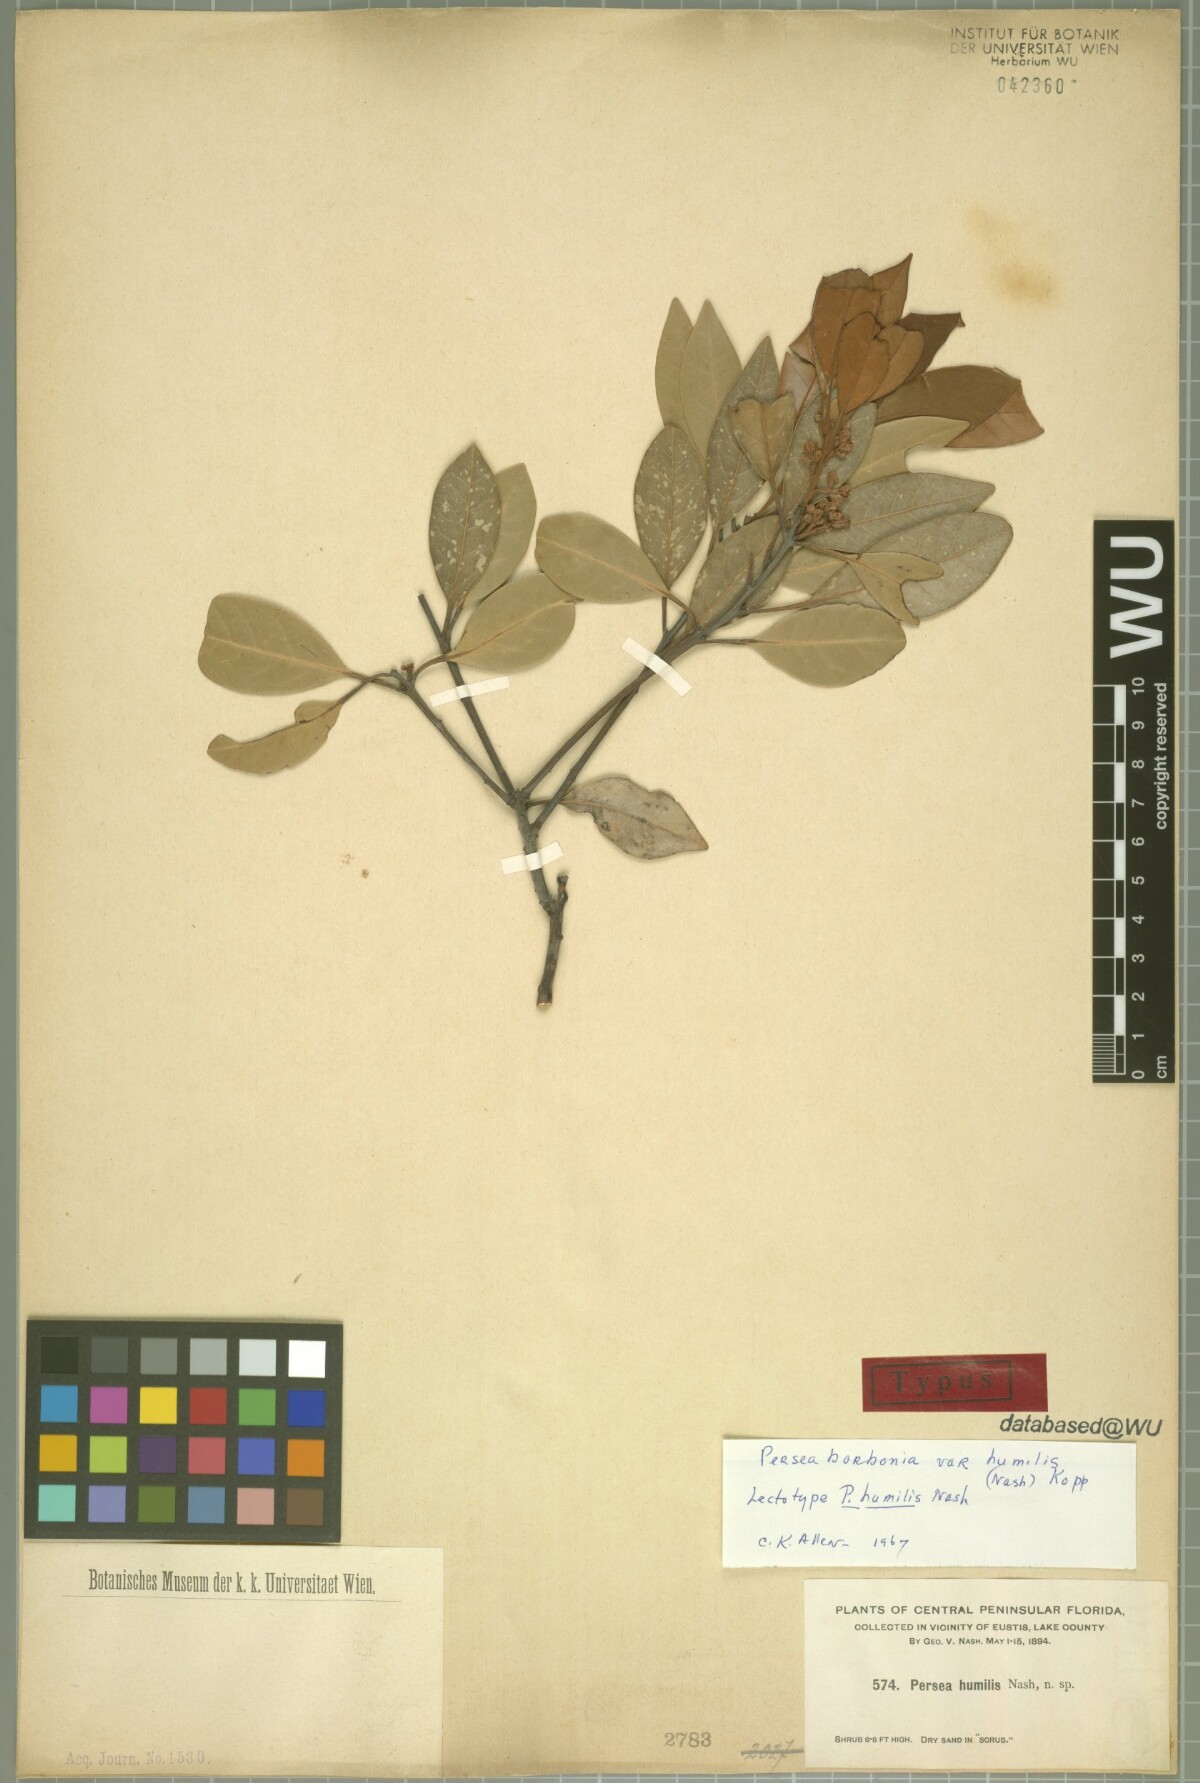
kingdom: Plantae
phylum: Tracheophyta
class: Magnoliopsida
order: Laurales
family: Lauraceae
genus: Persea
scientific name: Persea humilis
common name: Silkbay
